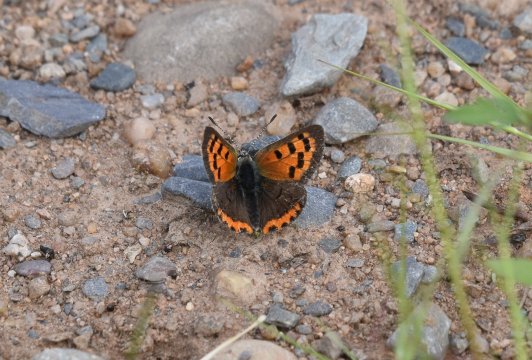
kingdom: Animalia
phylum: Arthropoda
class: Insecta
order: Lepidoptera
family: Lycaenidae
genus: Lycaena
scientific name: Lycaena phlaeas
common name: American Copper
